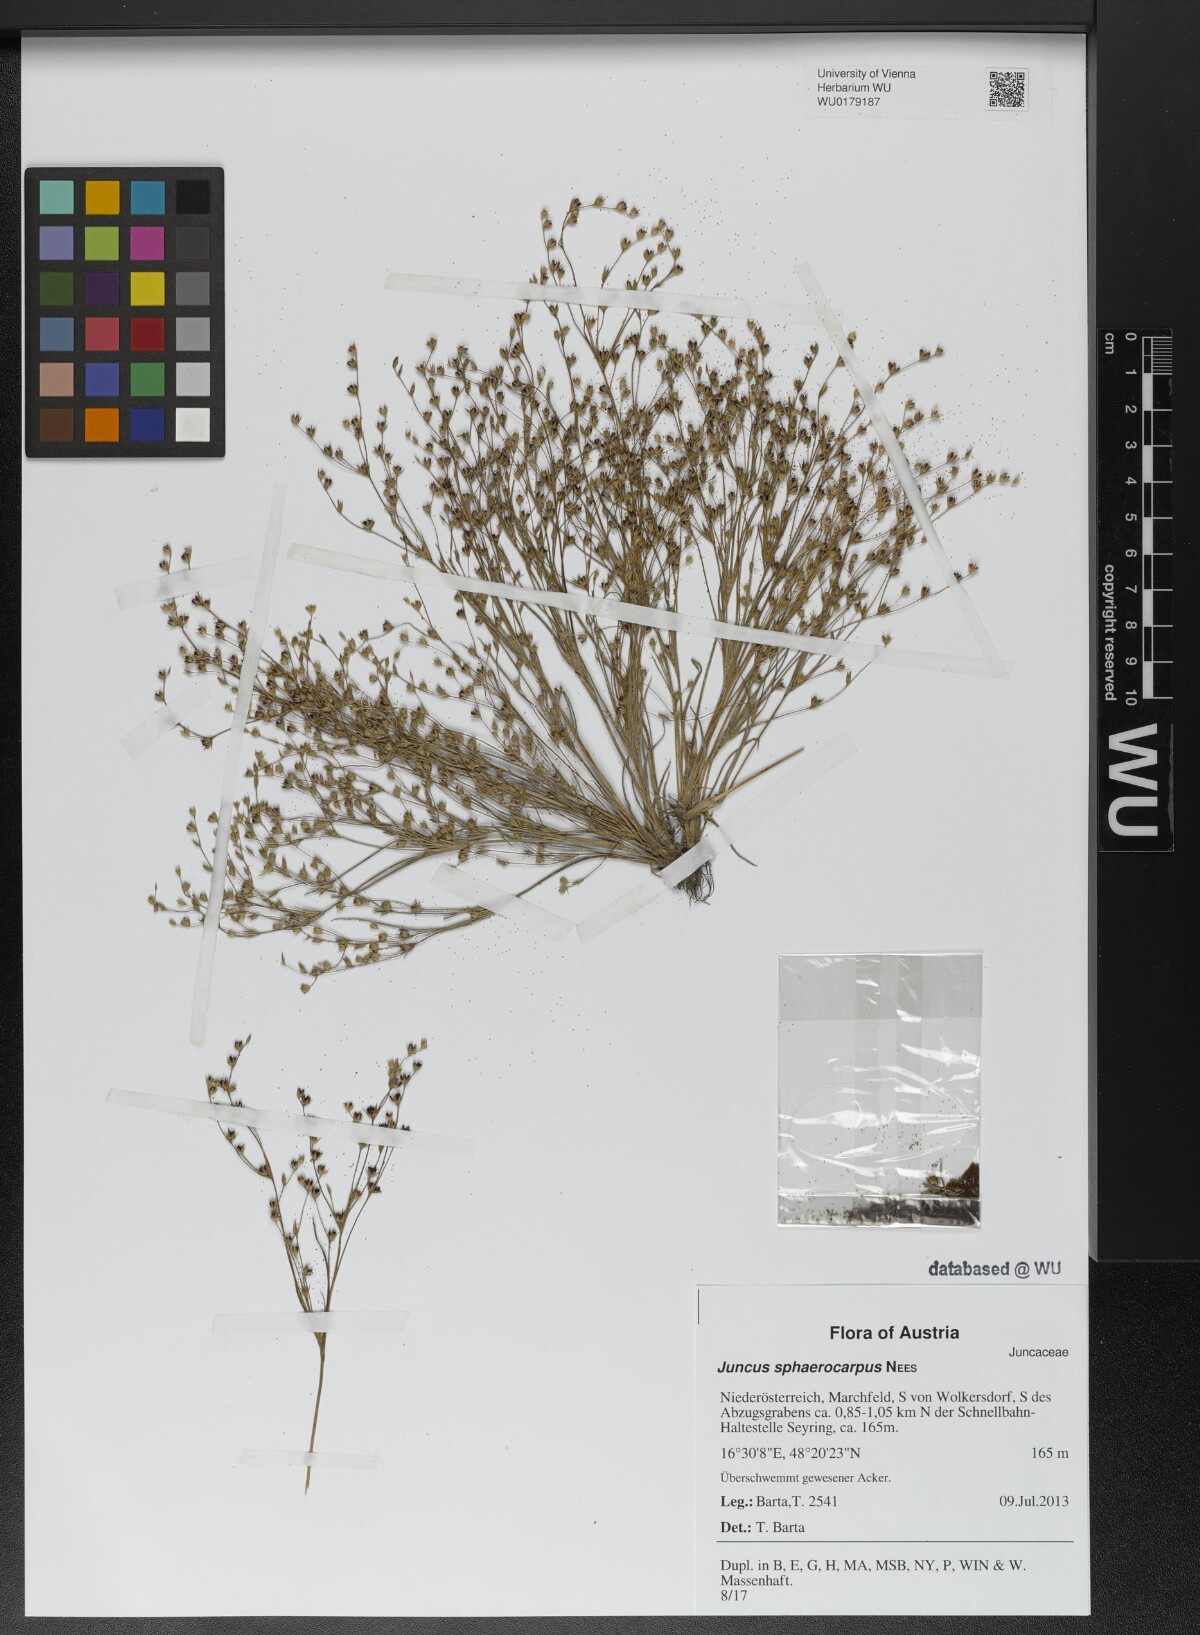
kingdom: Plantae
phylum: Tracheophyta
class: Liliopsida
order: Poales
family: Juncaceae
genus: Juncus
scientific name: Juncus sphaerocarpus
